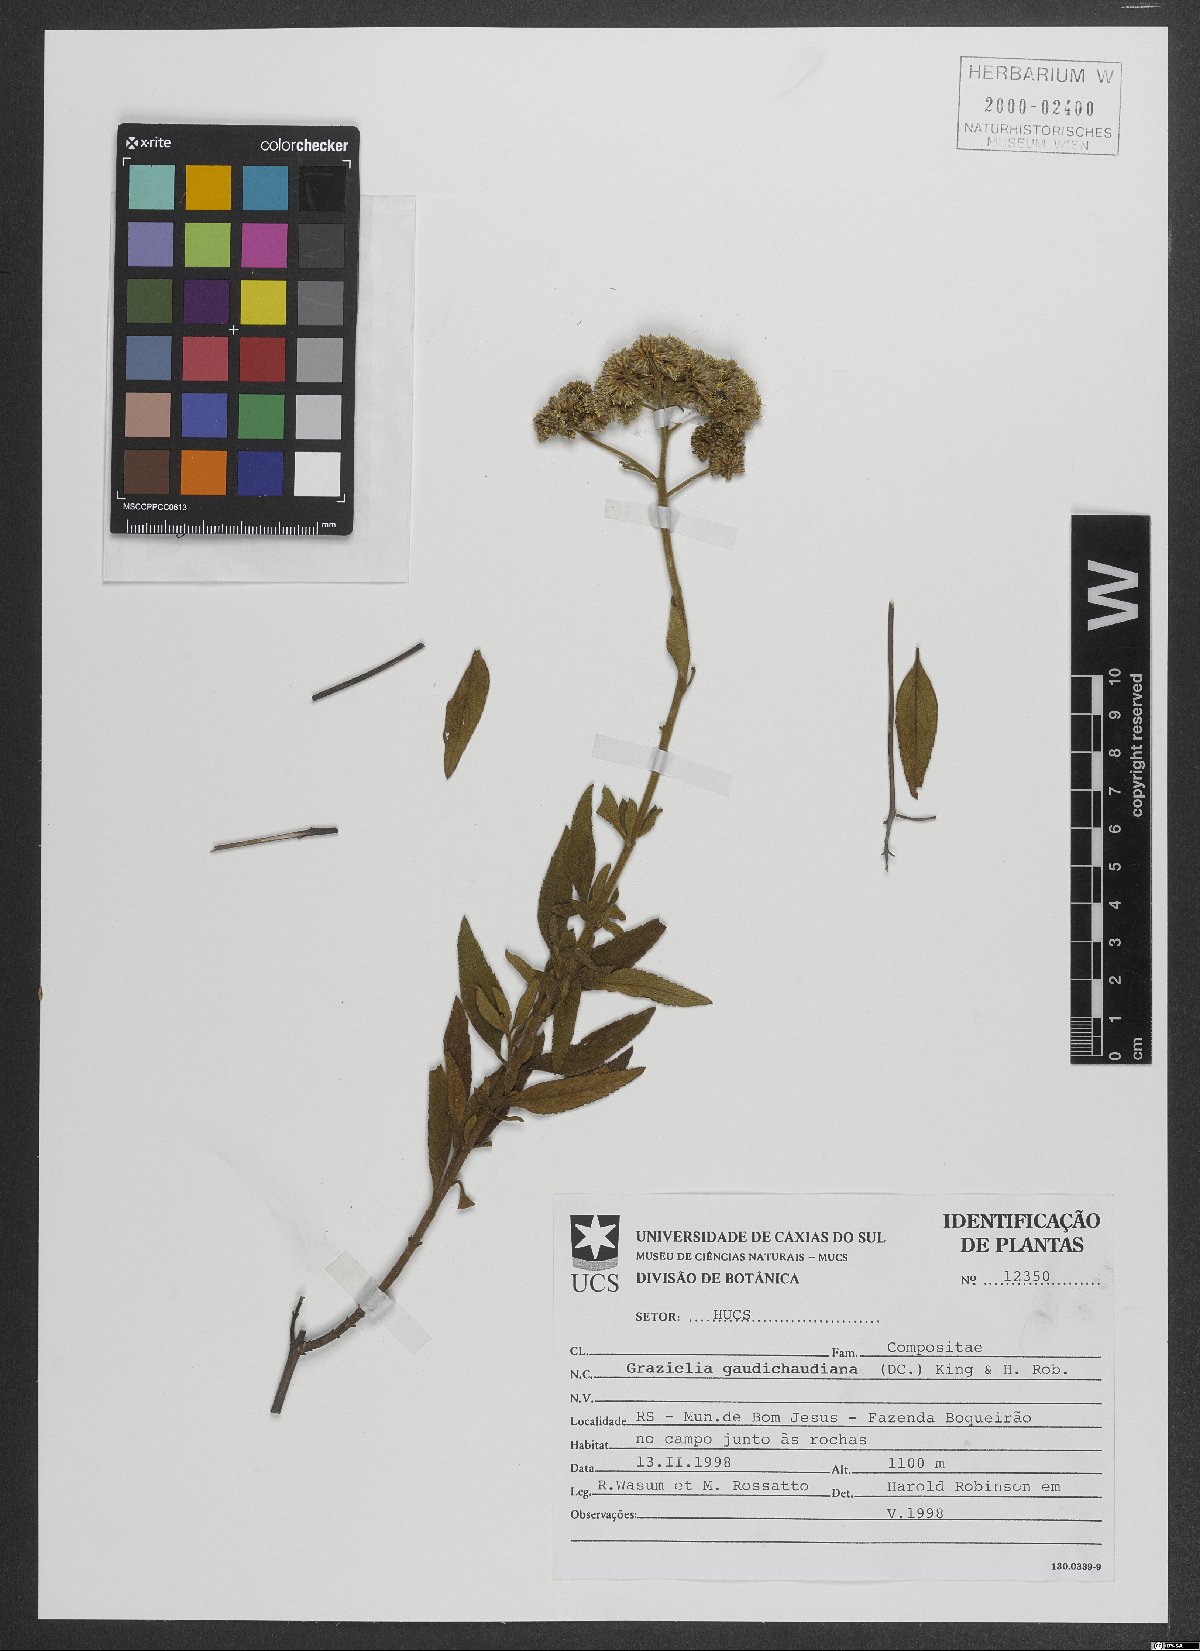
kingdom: Plantae
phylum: Tracheophyta
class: Magnoliopsida
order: Asterales
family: Asteraceae
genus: Grazielia
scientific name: Grazielia gaudichaudeana
